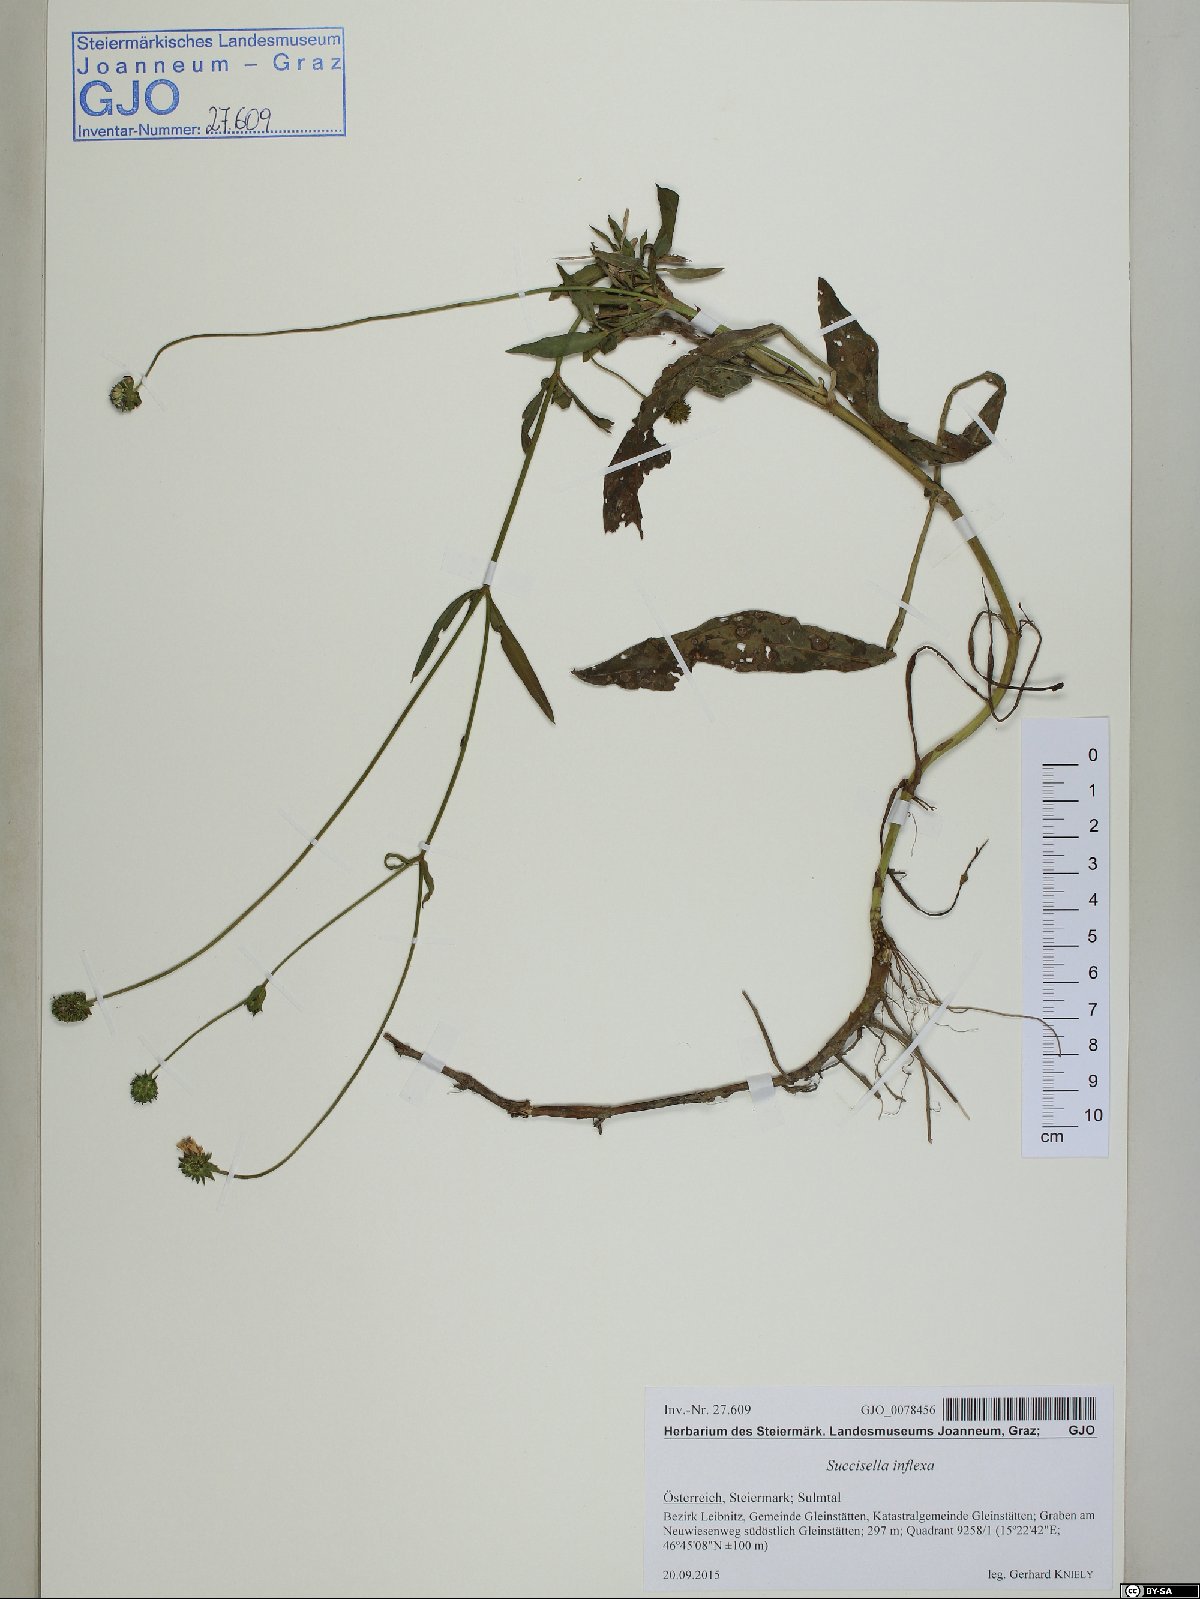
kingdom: Plantae
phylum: Tracheophyta
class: Magnoliopsida
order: Dipsacales
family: Caprifoliaceae
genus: Succisella
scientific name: Succisella inflexa
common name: Southern succisella
